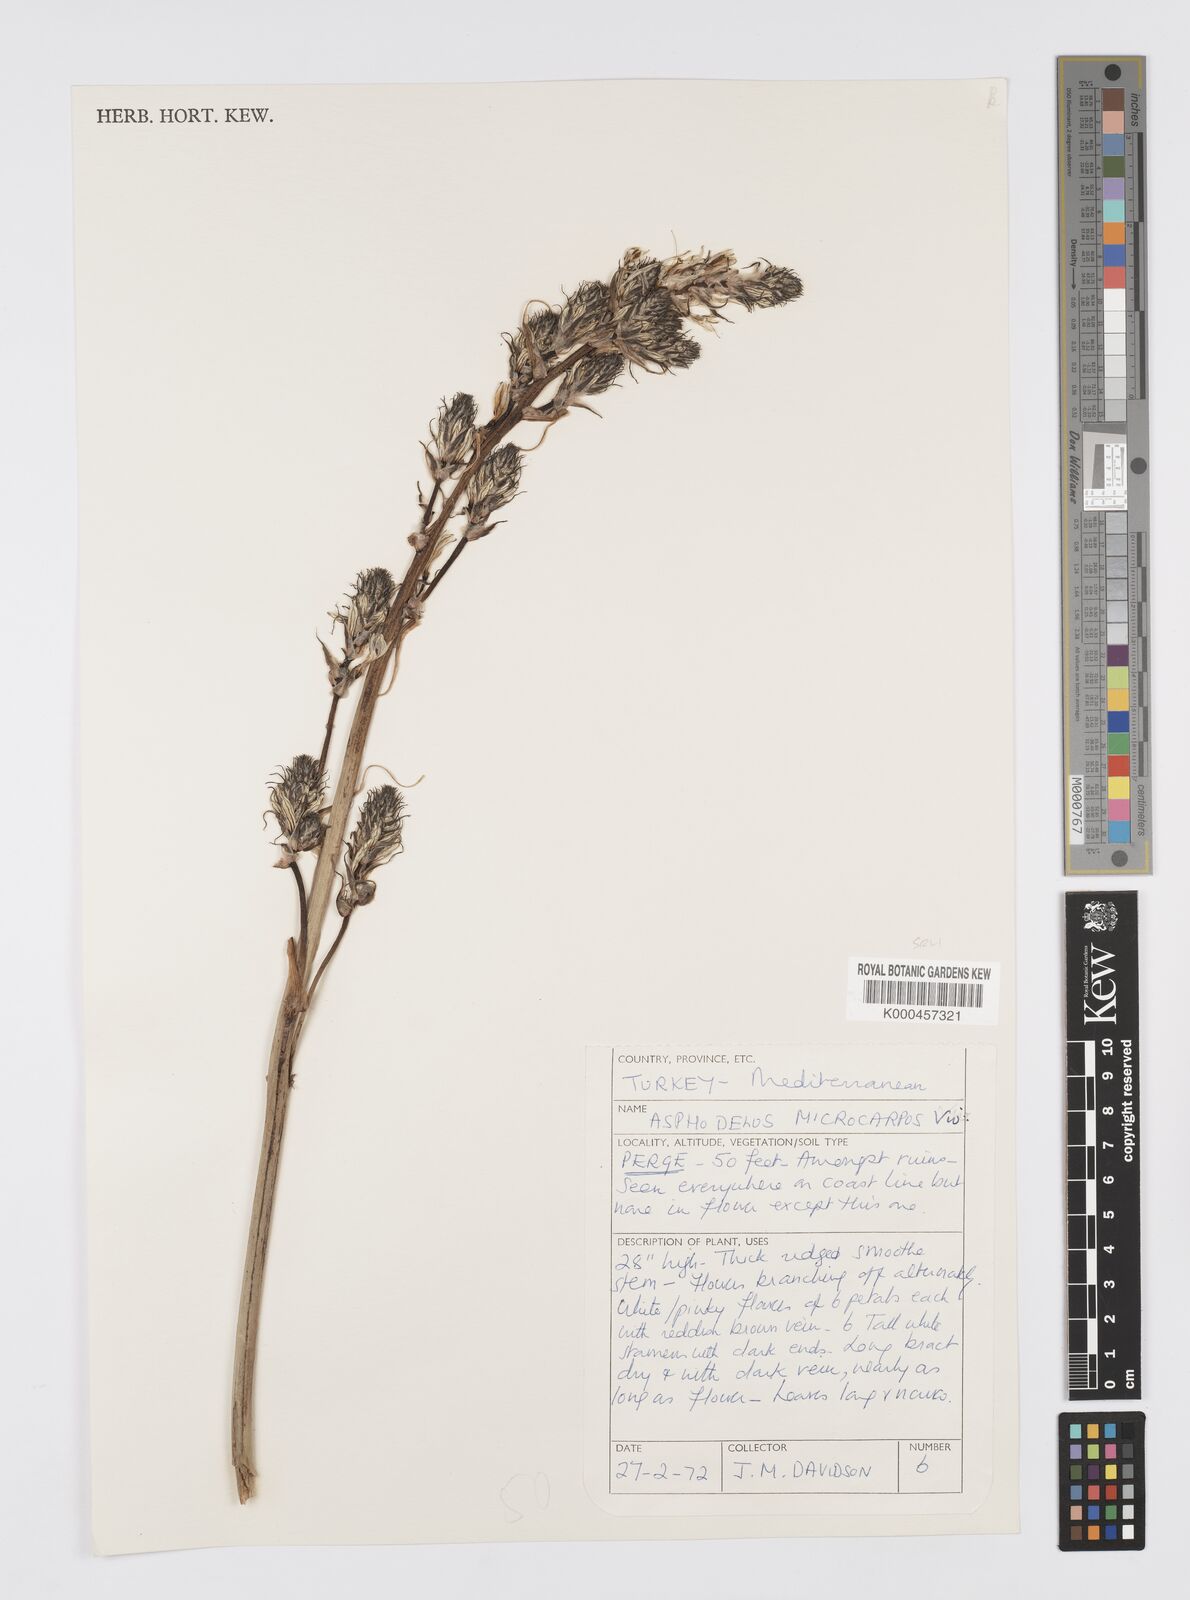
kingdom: Plantae
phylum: Tracheophyta
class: Liliopsida
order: Asparagales
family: Asphodelaceae
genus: Asphodelus
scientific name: Asphodelus aestivus
